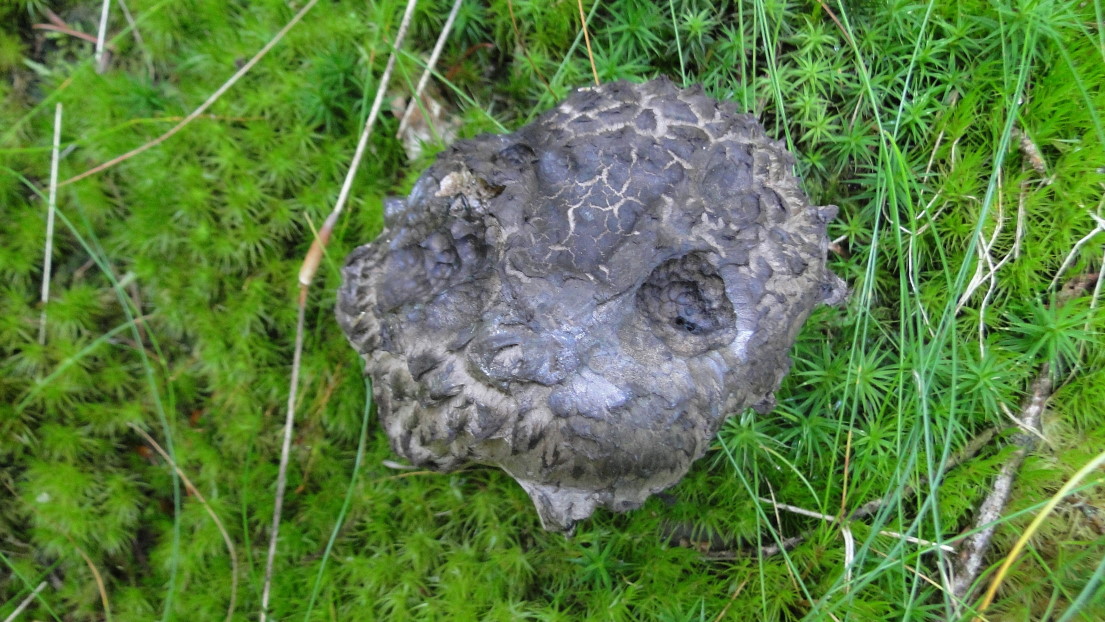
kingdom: Fungi
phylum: Basidiomycota
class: Agaricomycetes
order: Boletales
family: Boletaceae
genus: Strobilomyces
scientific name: Strobilomyces strobilaceus
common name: koglerørhat
